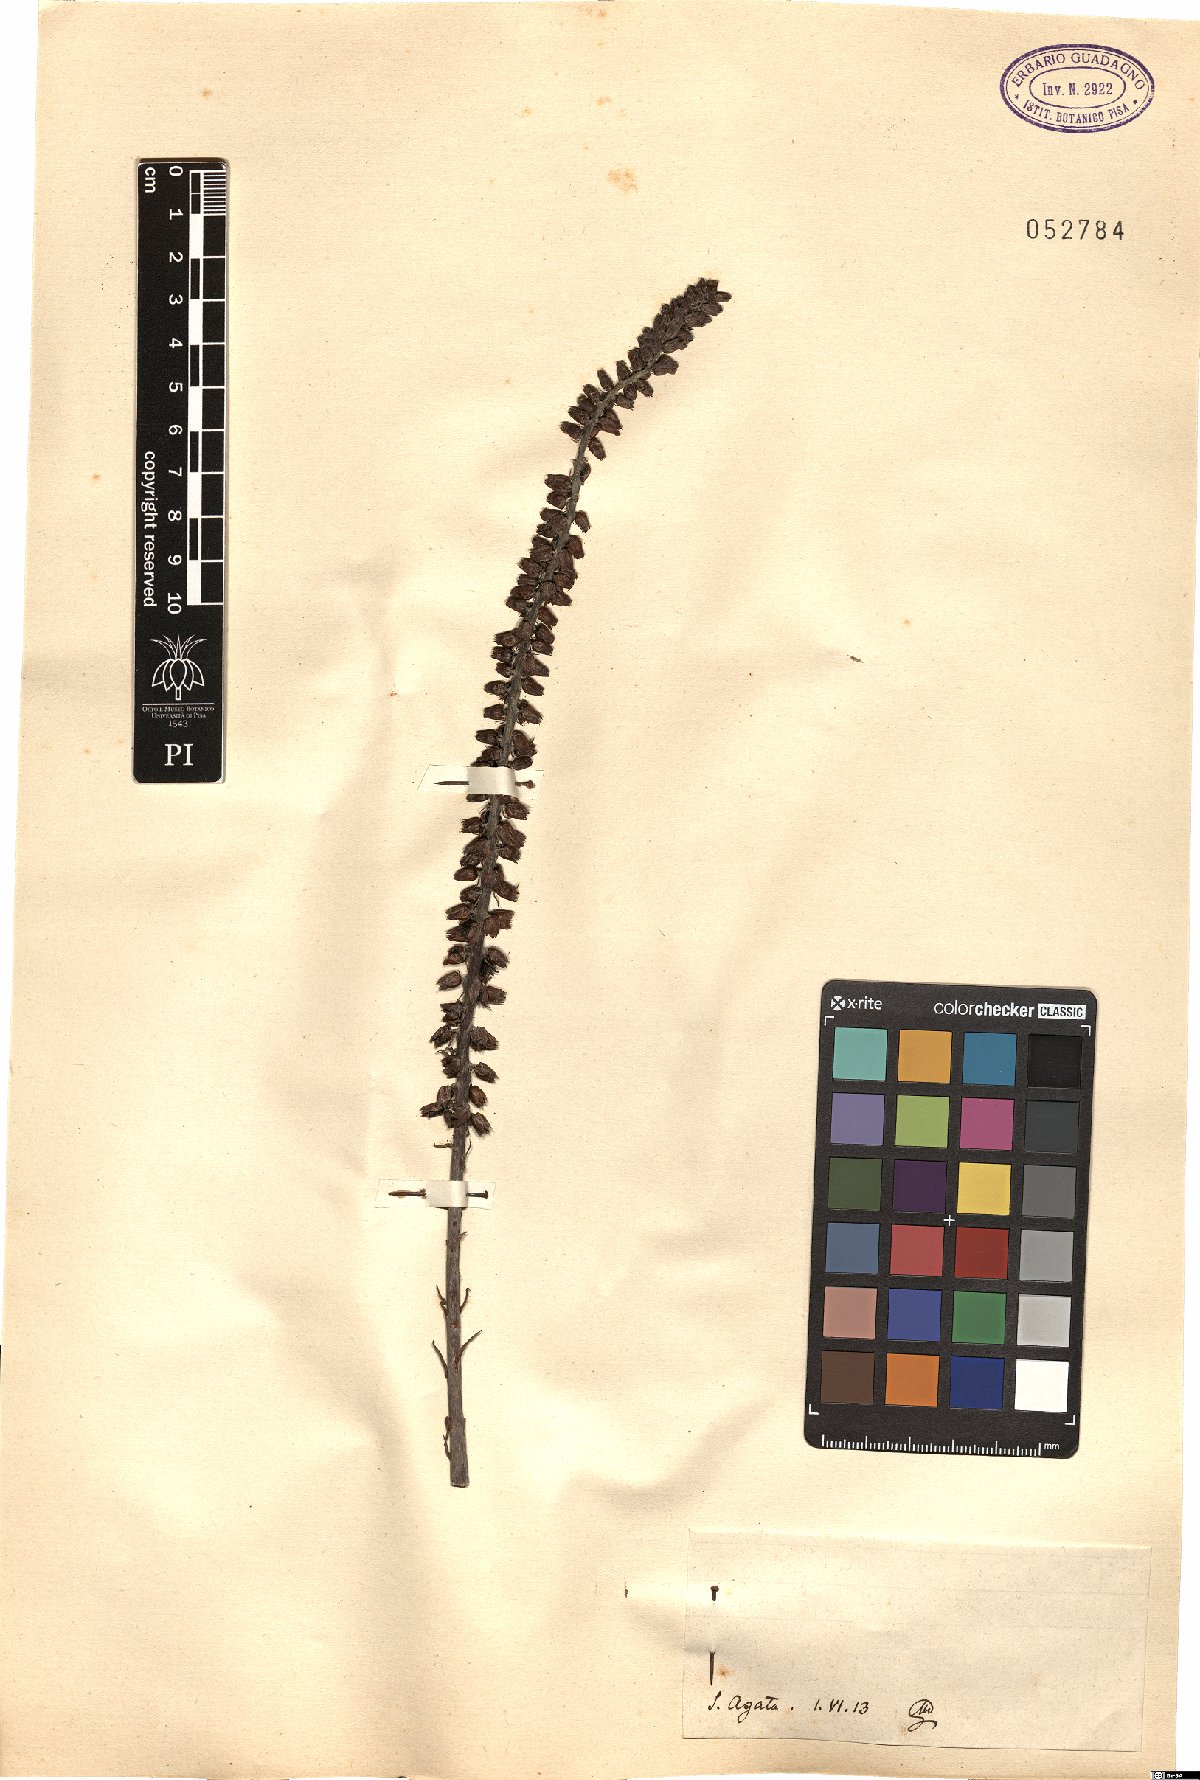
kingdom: Plantae
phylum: Tracheophyta
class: Magnoliopsida
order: Saxifragales
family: Crassulaceae
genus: Umbilicus
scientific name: Umbilicus
